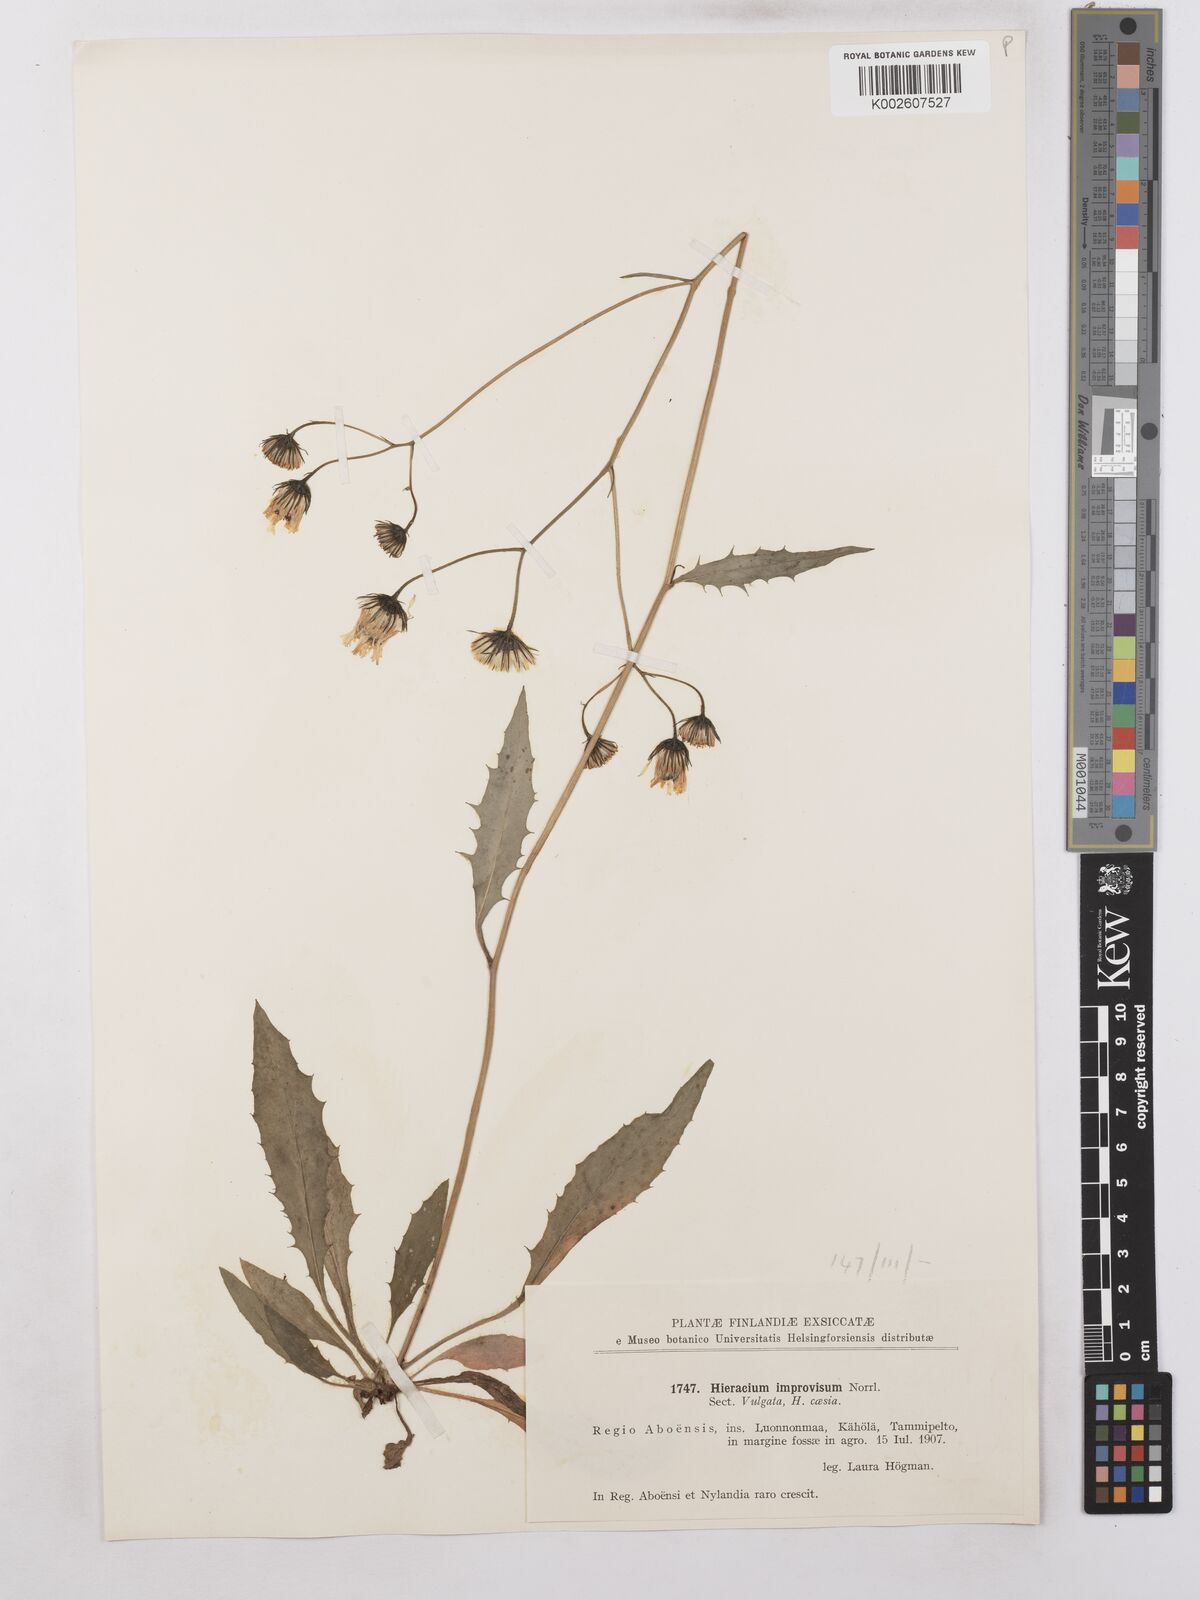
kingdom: Plantae
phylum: Tracheophyta
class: Magnoliopsida
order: Asterales
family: Asteraceae
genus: Hieracium
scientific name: Hieracium
